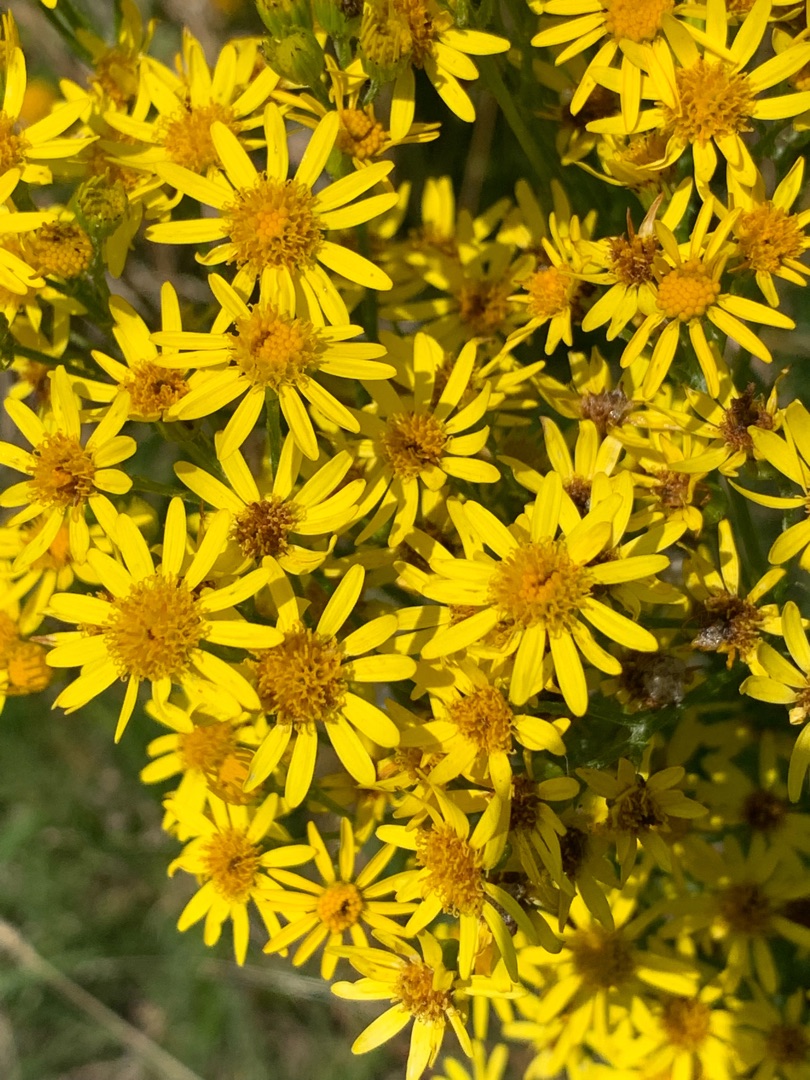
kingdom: Plantae
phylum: Tracheophyta
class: Magnoliopsida
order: Asterales
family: Asteraceae
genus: Jacobaea
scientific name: Jacobaea vulgaris
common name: Eng-brandbæger
